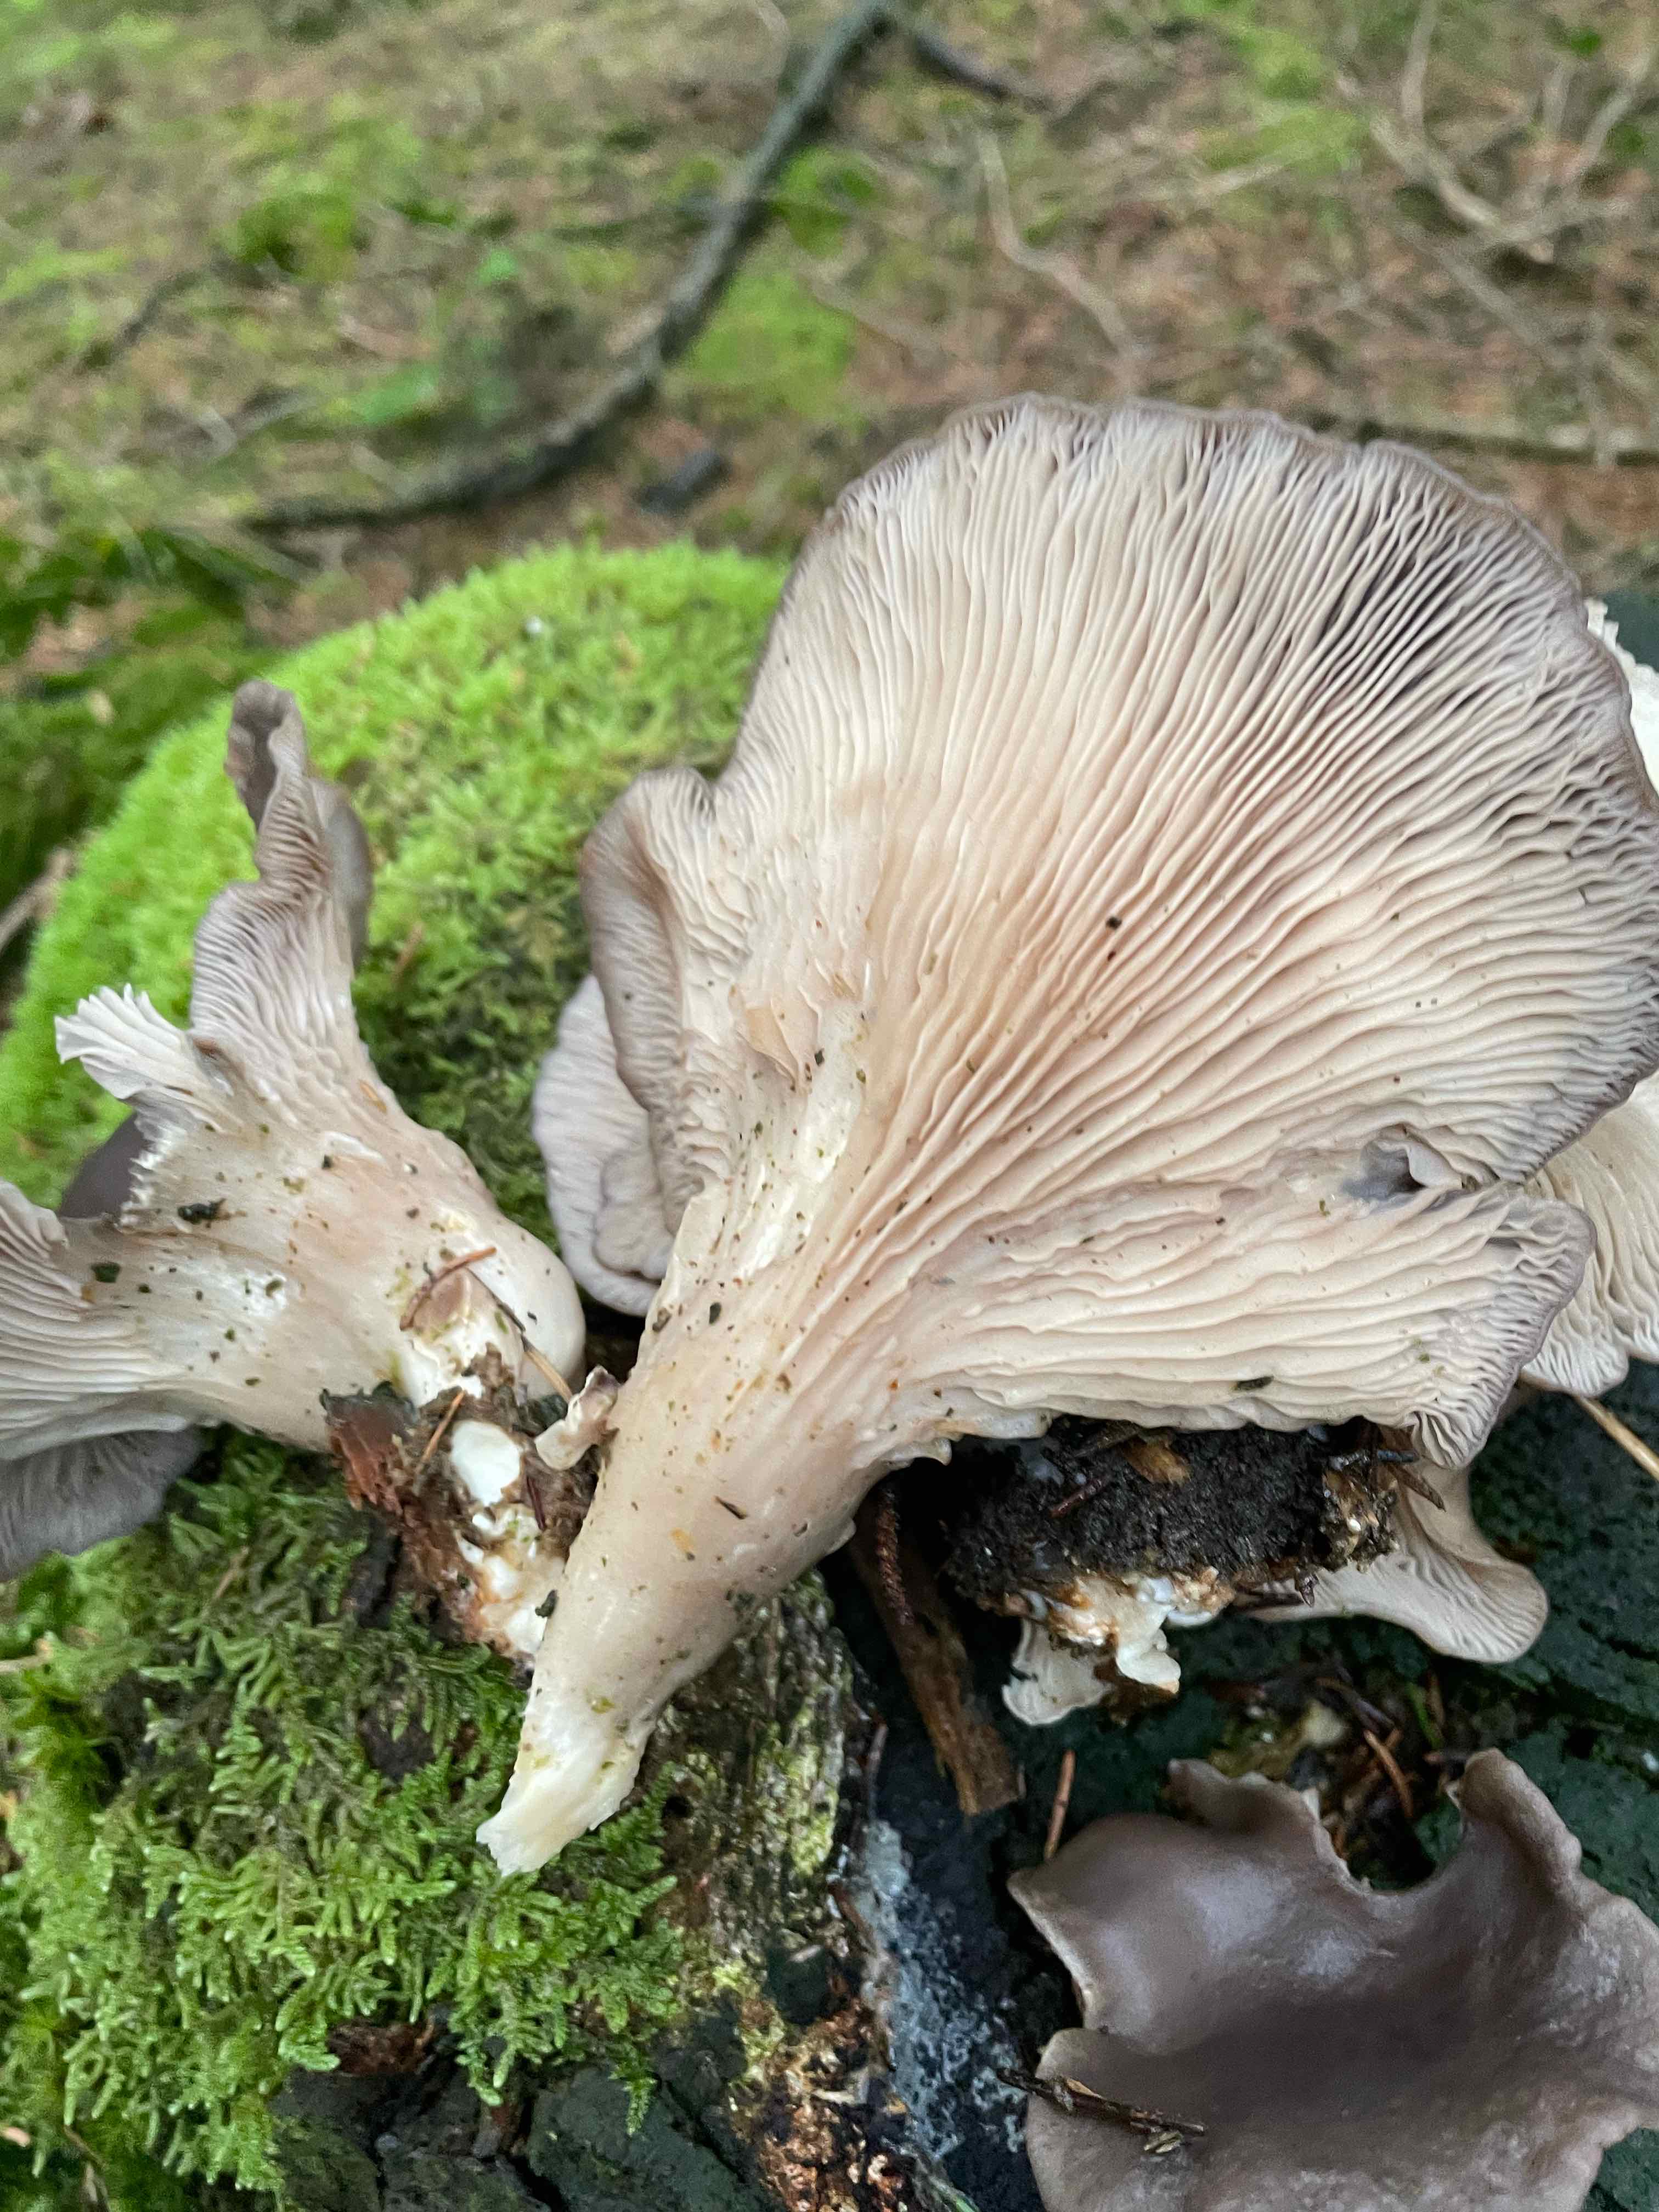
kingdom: Fungi
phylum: Basidiomycota
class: Agaricomycetes
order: Agaricales
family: Pleurotaceae
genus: Pleurotus
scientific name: Pleurotus ostreatus
